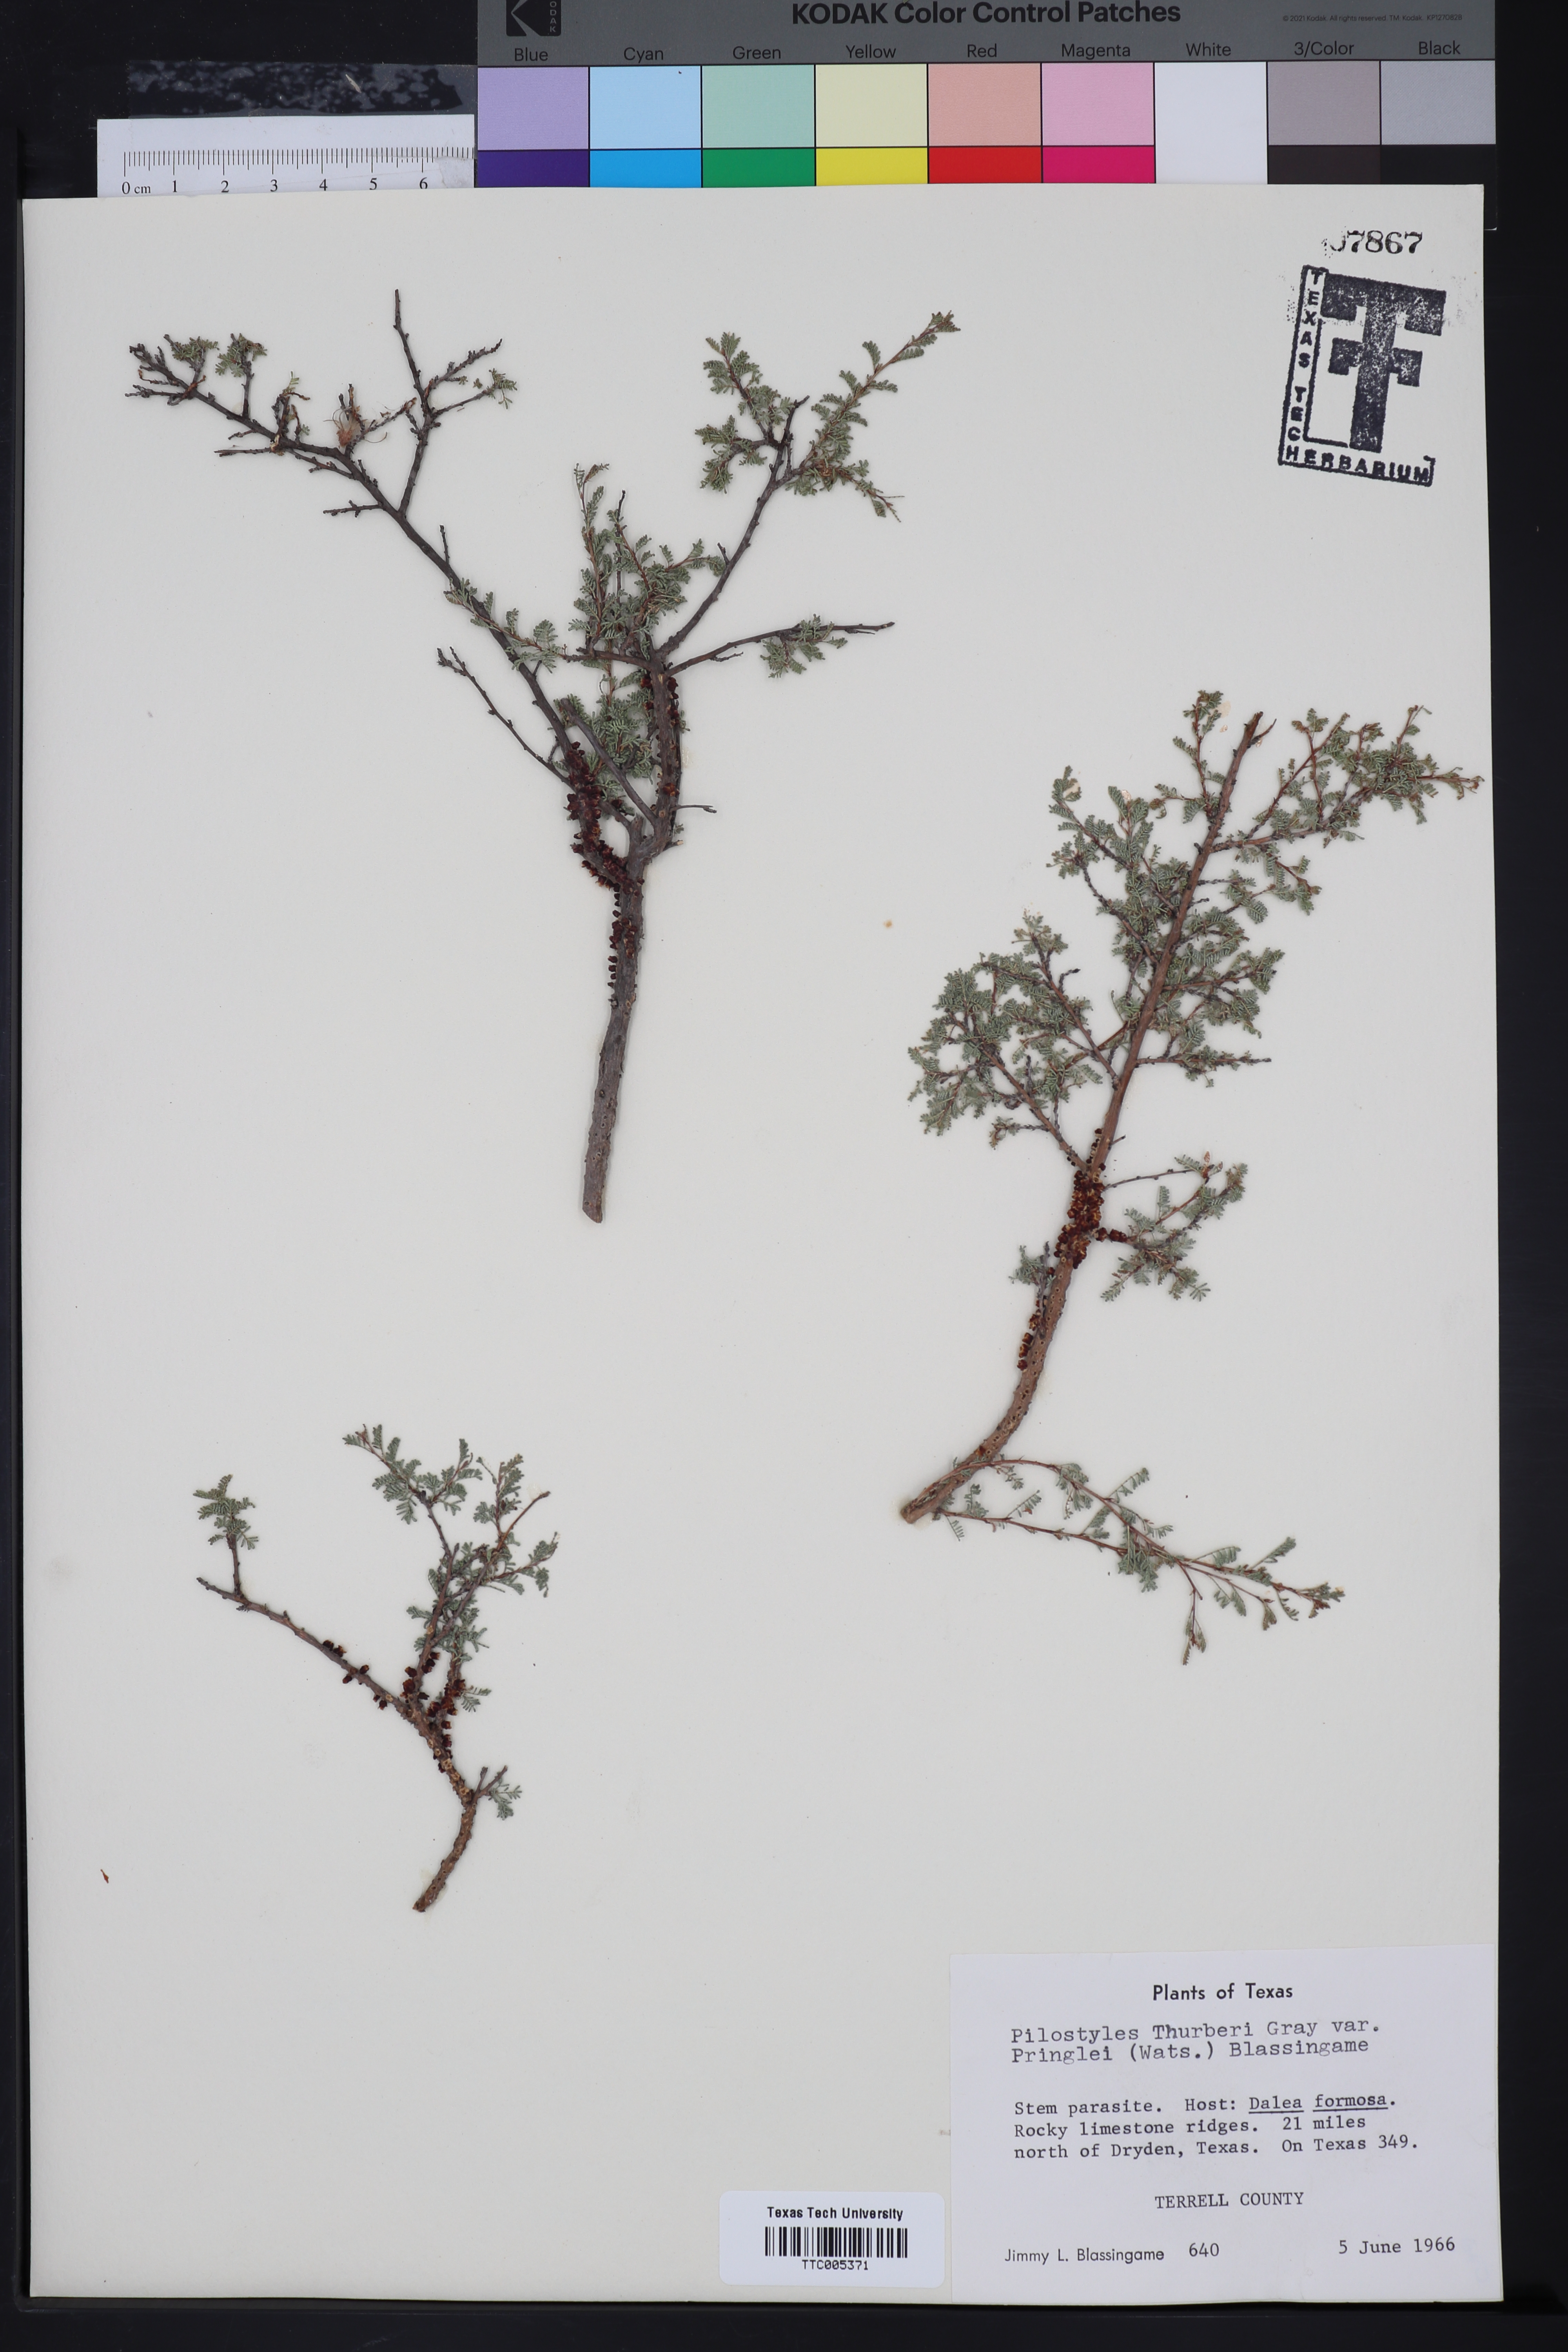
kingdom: Plantae
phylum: Tracheophyta
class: Magnoliopsida
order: Cucurbitales
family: Apodanthaceae
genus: Pilostyles
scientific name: Pilostyles thurberi
